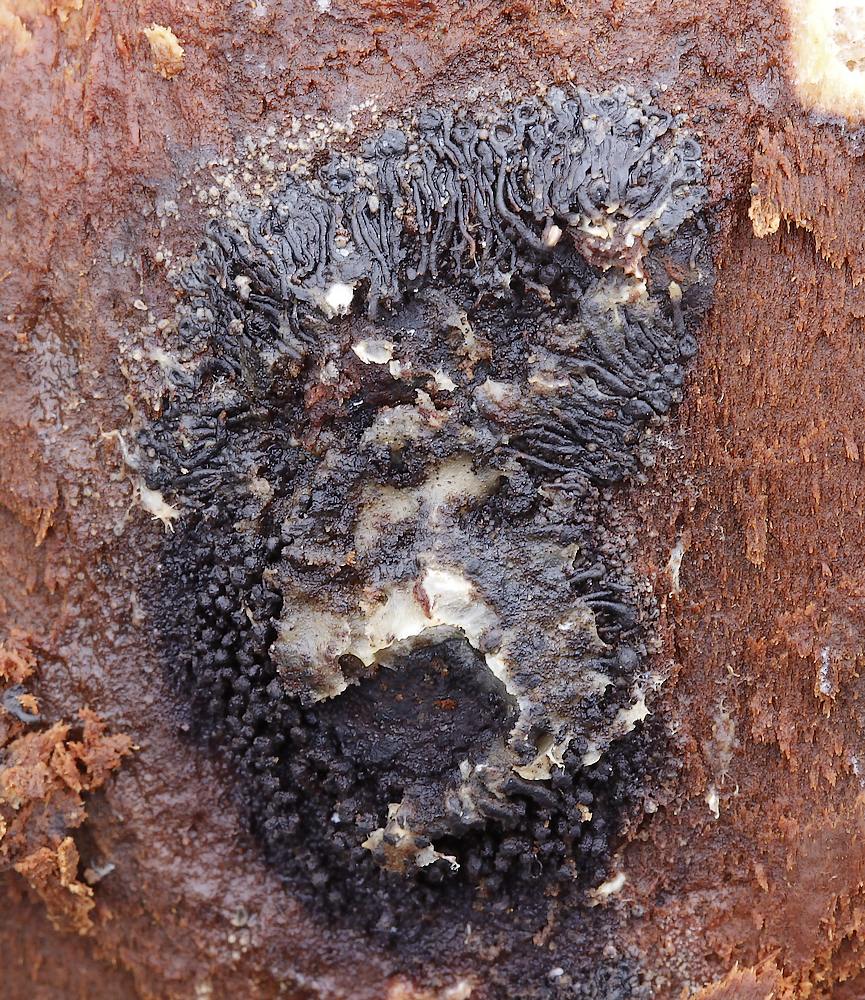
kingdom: Fungi
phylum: Ascomycota
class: Sordariomycetes
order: Calosphaeriales
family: Calosphaeriaceae
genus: Calosphaeria
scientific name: Calosphaeria pulchella
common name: smuk slyngkerne
